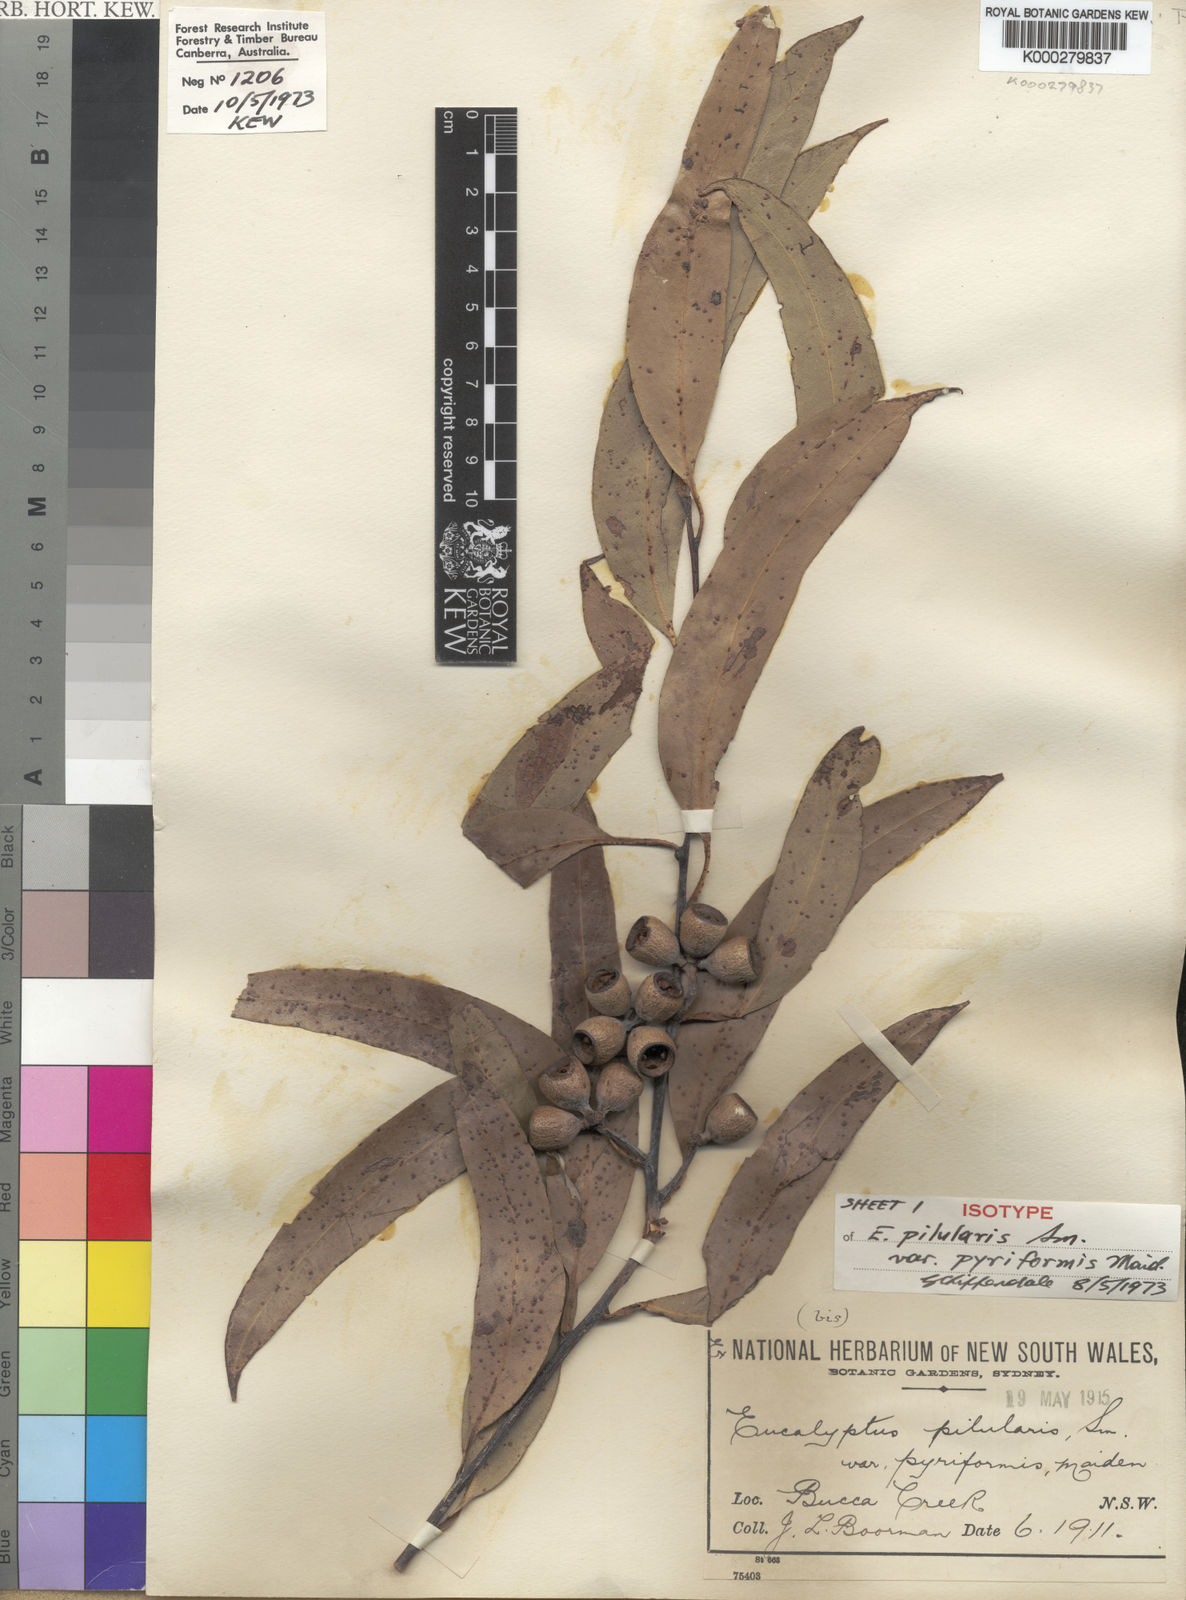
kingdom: Plantae
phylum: Tracheophyta
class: Magnoliopsida
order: Myrtales
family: Myrtaceae
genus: Eucalyptus
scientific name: Eucalyptus pyrocarpa
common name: Large-fruited-blackbutt
